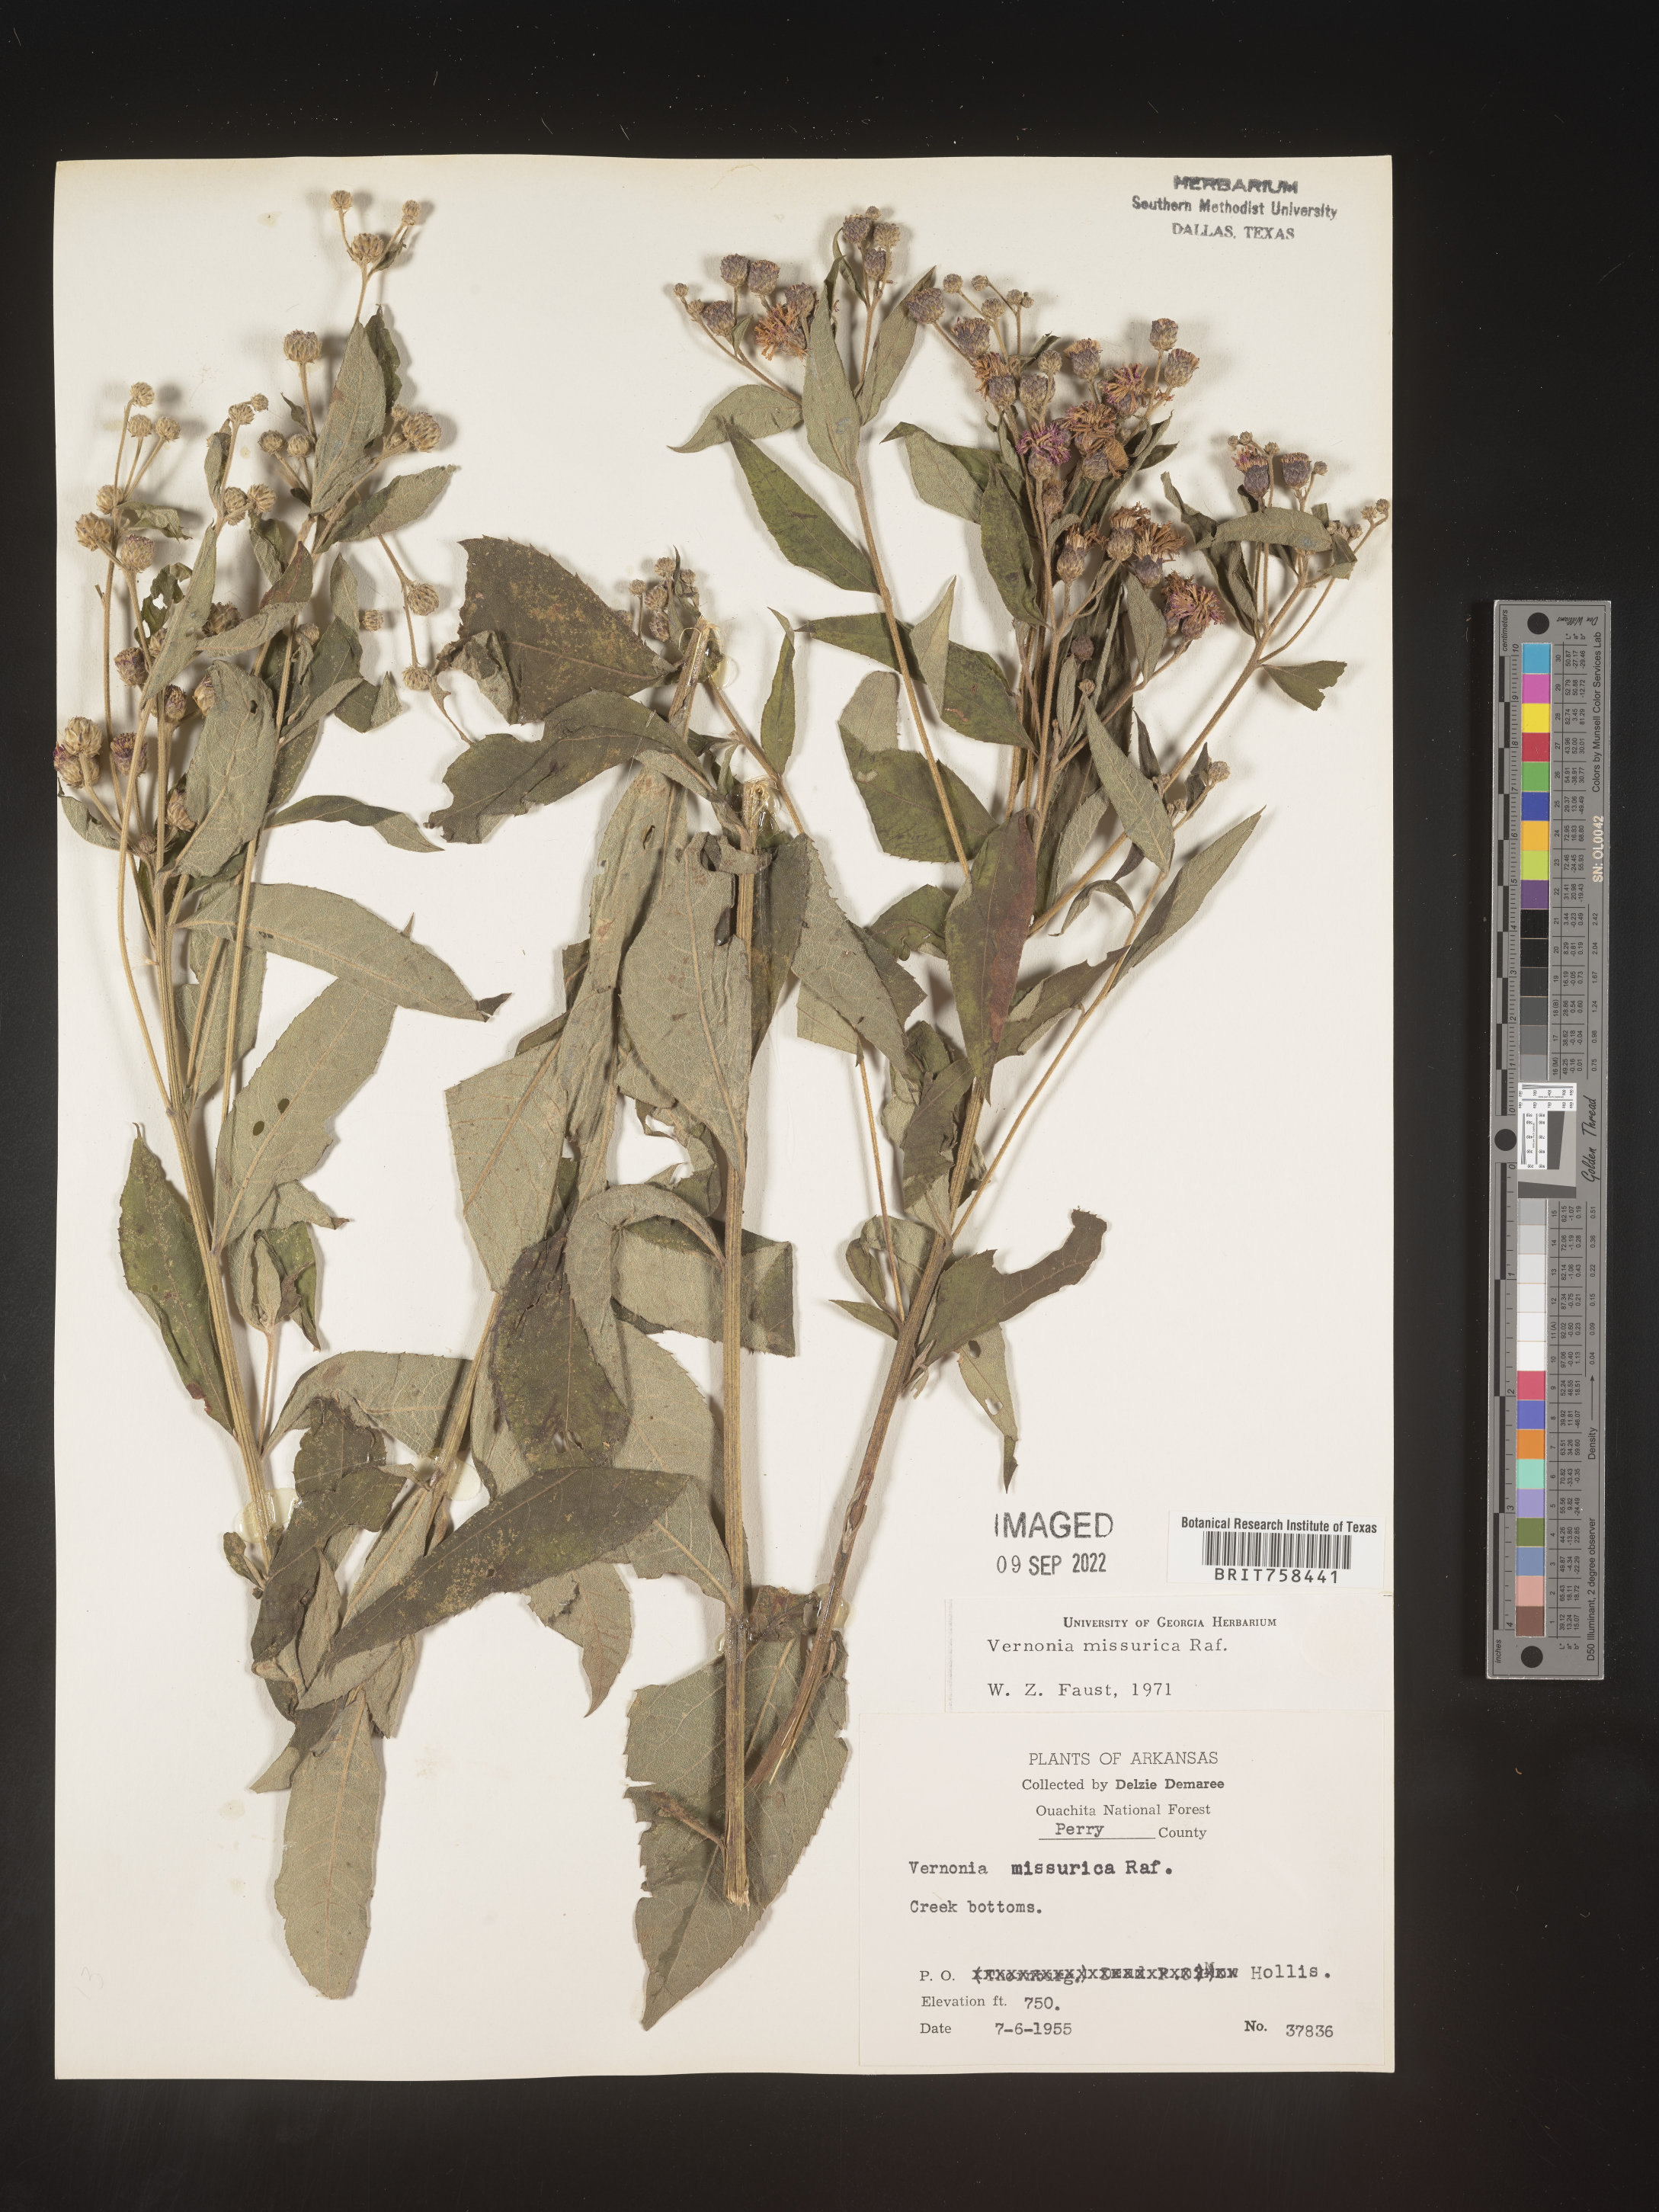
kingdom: Plantae
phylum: Tracheophyta
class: Magnoliopsida
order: Asterales
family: Asteraceae
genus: Vernonia
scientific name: Vernonia missurica
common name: Missouri ironweed
